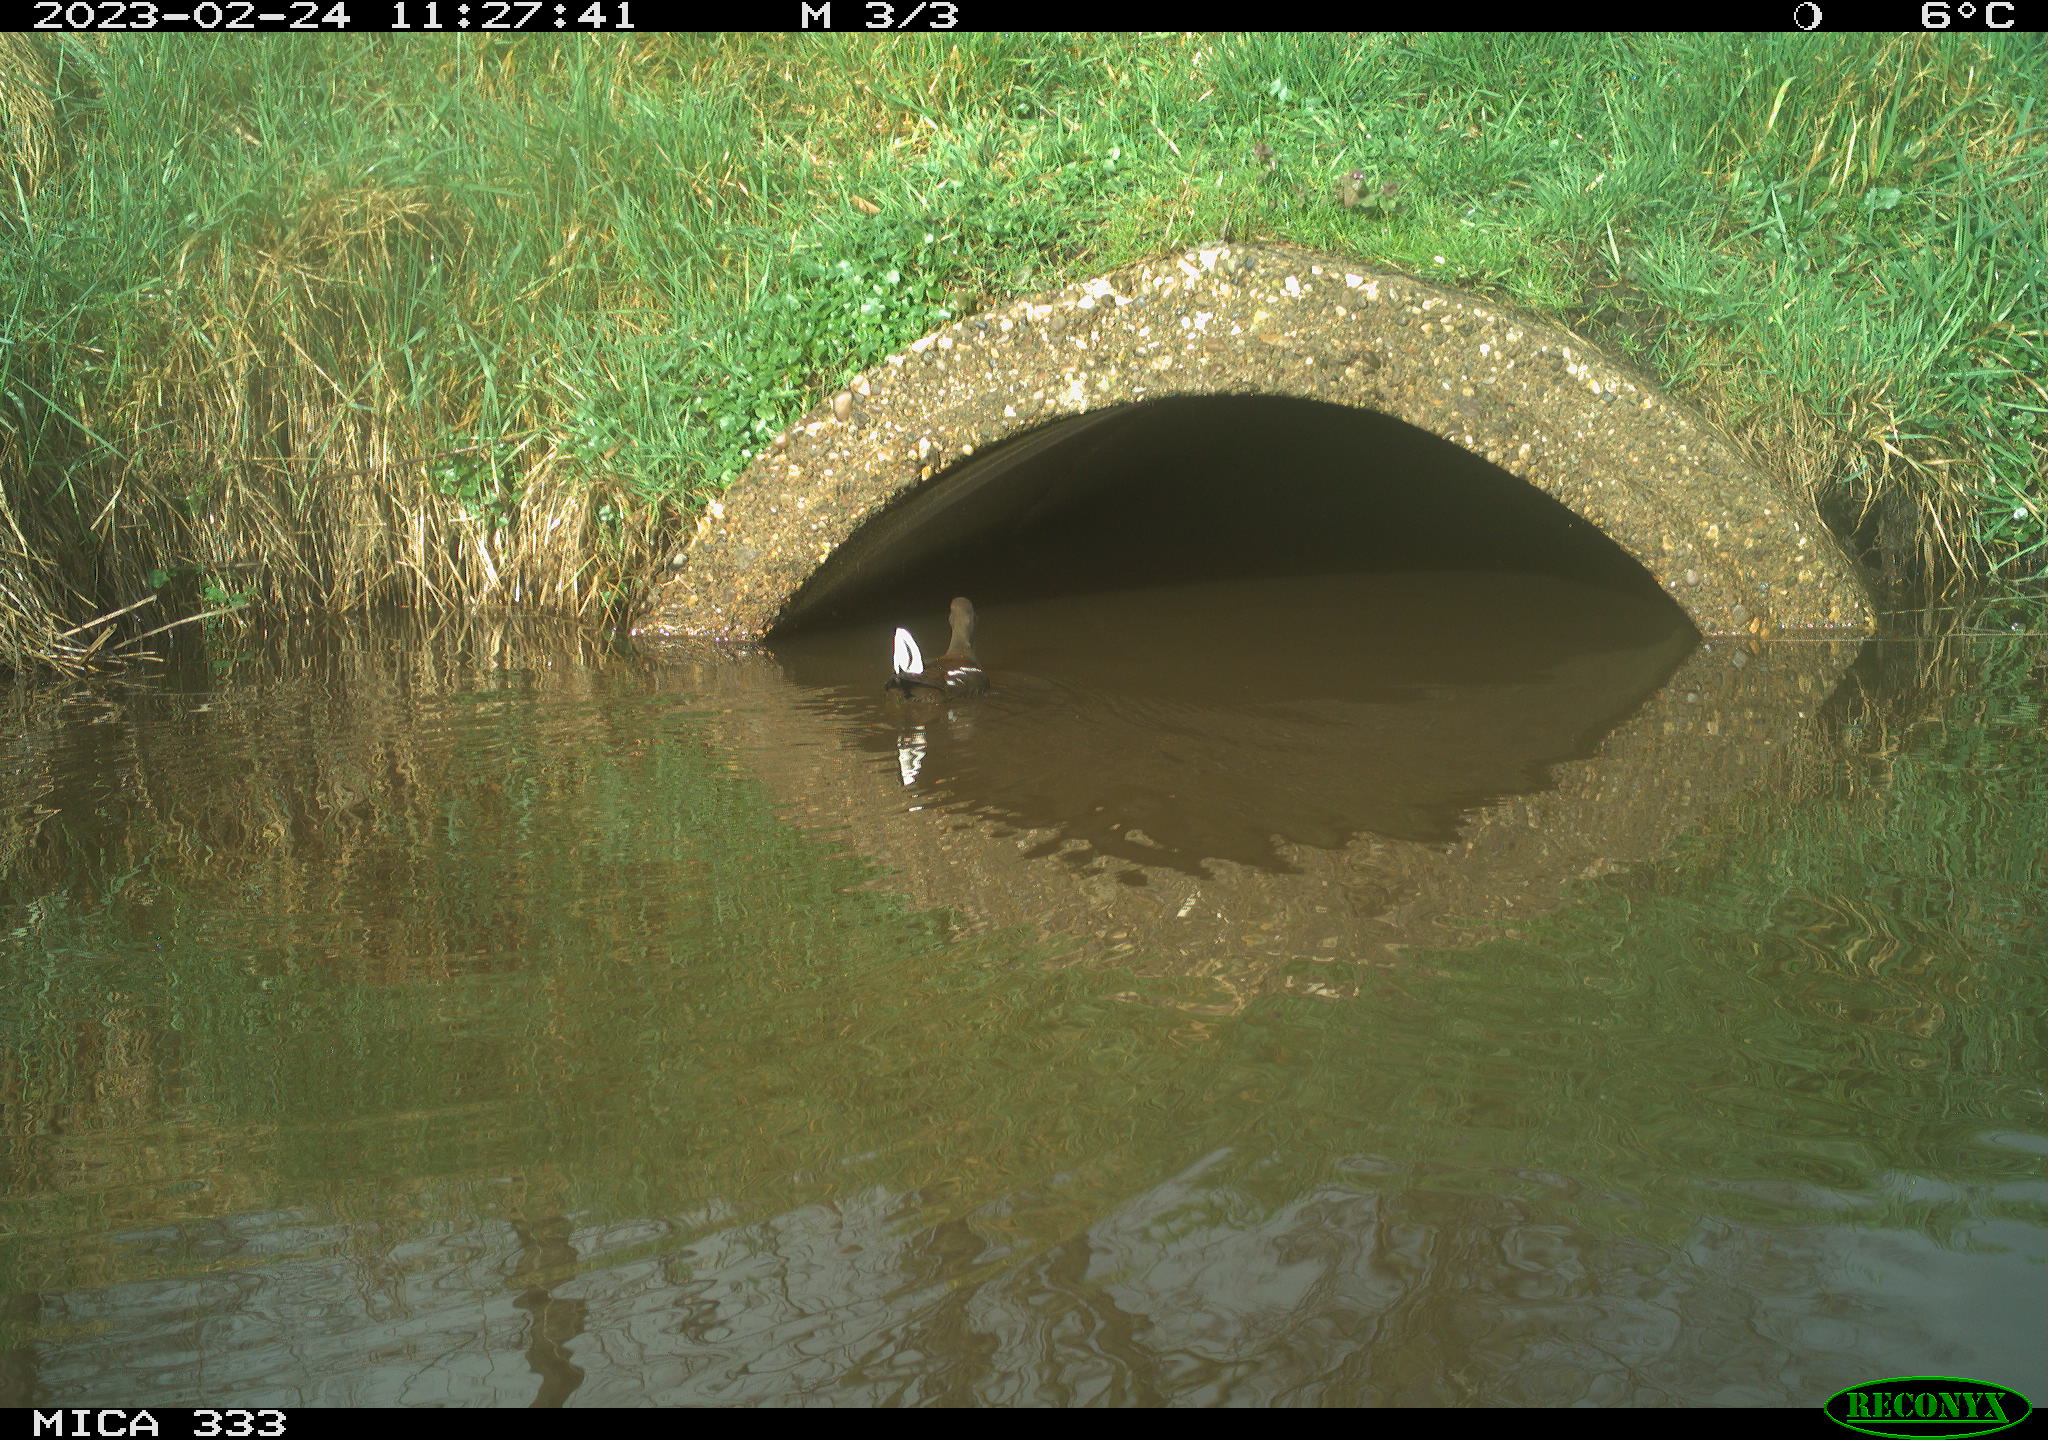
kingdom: Animalia
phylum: Chordata
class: Aves
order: Gruiformes
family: Rallidae
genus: Gallinula
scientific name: Gallinula chloropus
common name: Common moorhen
